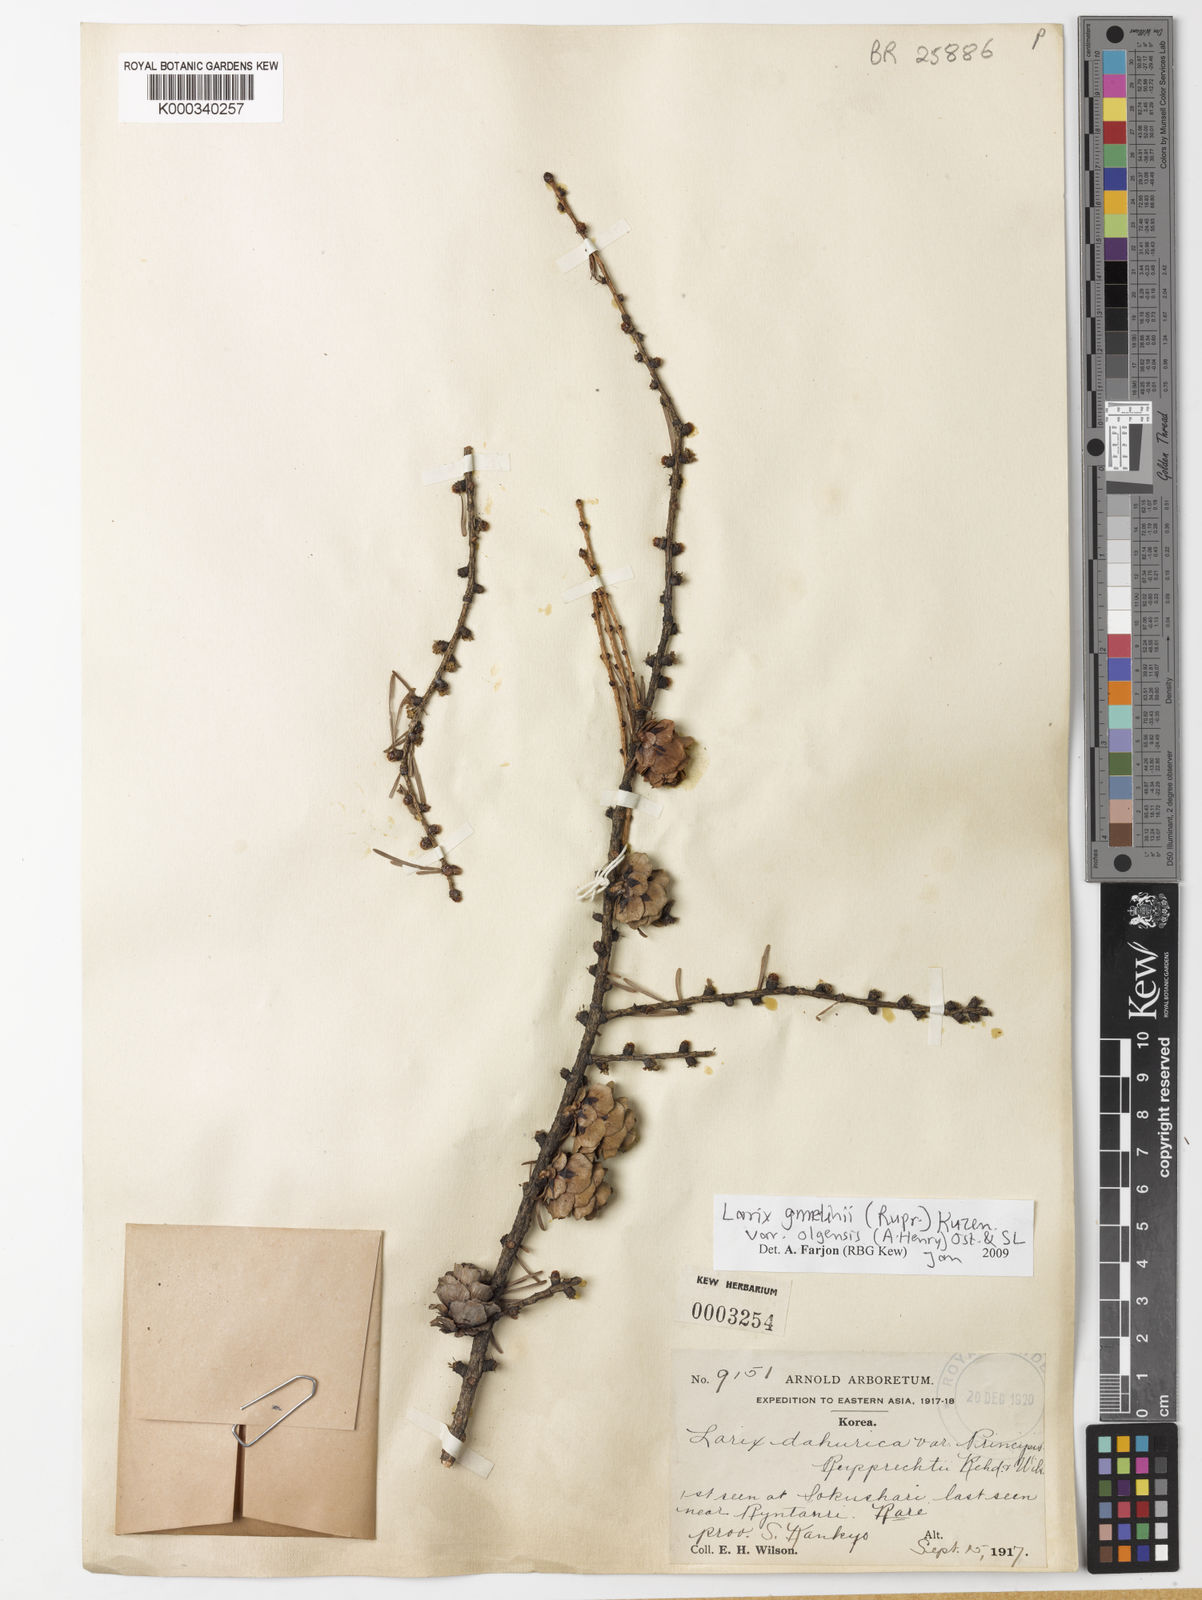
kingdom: Plantae
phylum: Tracheophyta
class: Pinopsida
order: Pinales
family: Pinaceae
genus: Larix
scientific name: Larix gmelinii
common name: Dahurian larch
